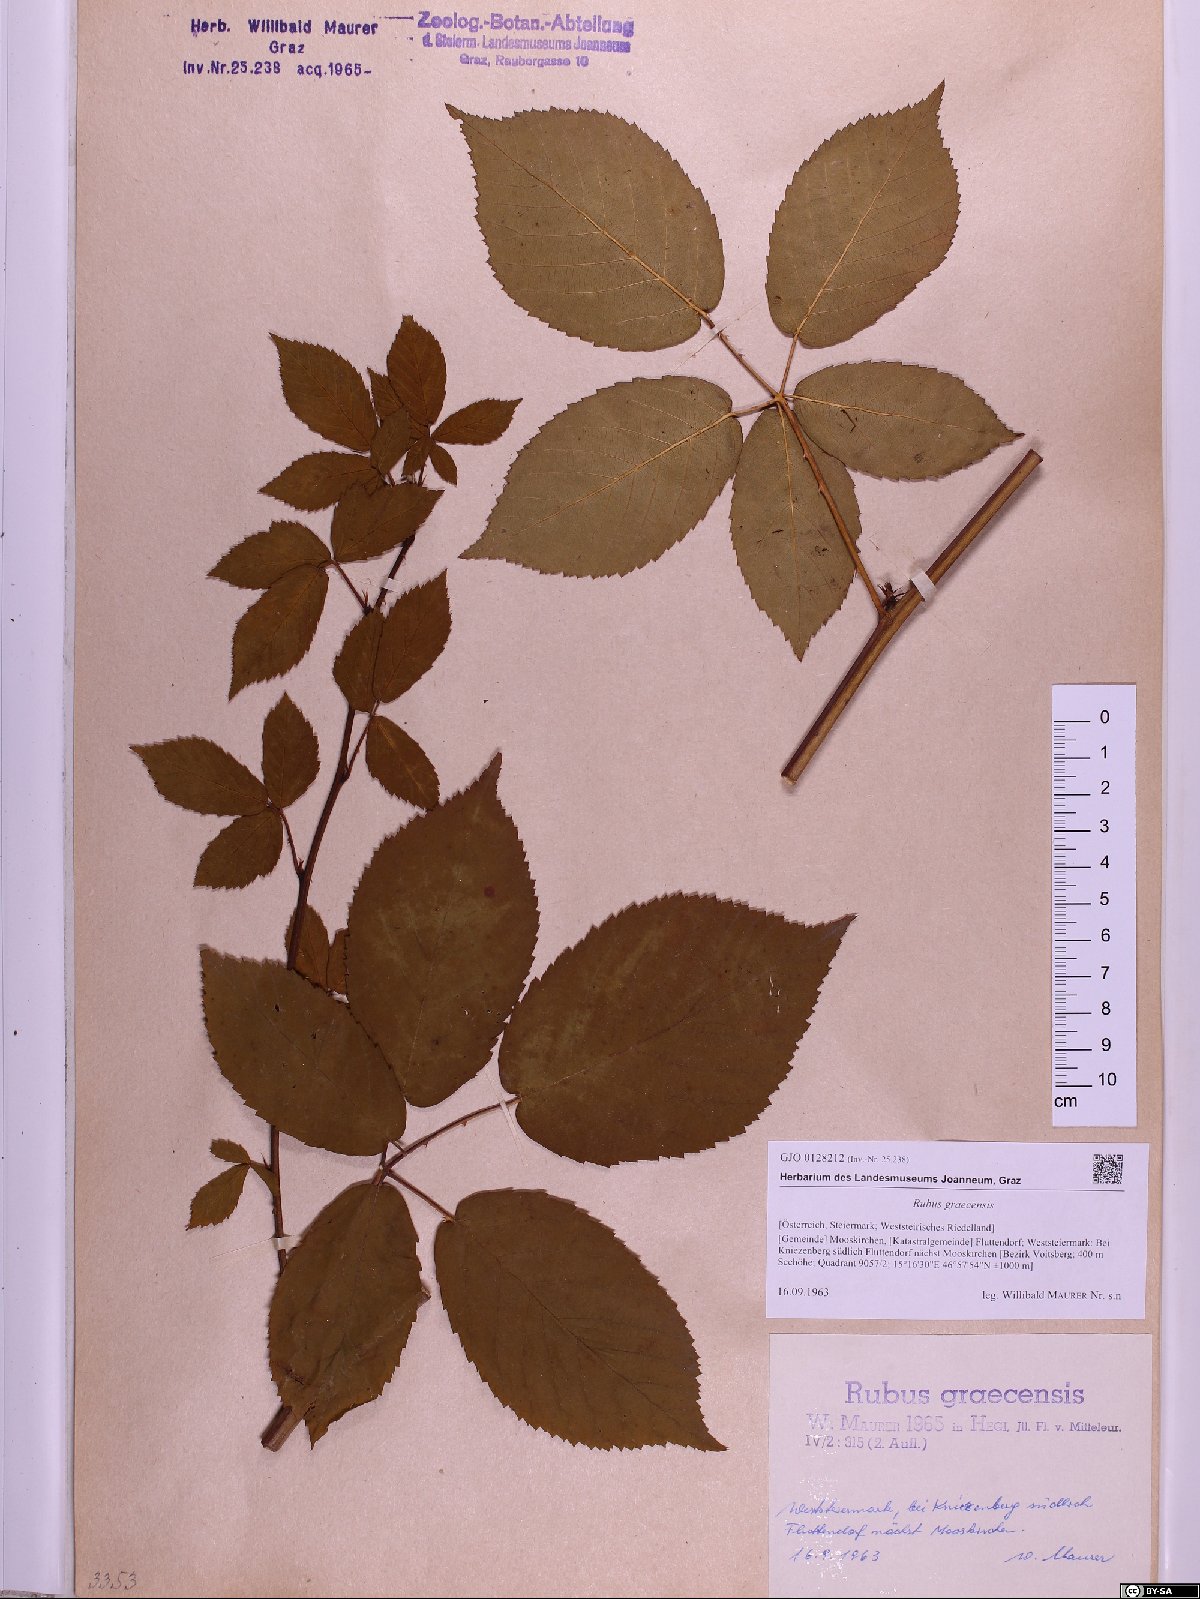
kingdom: Plantae
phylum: Tracheophyta
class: Magnoliopsida
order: Rosales
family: Rosaceae
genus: Rubus
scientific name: Rubus graecensis
